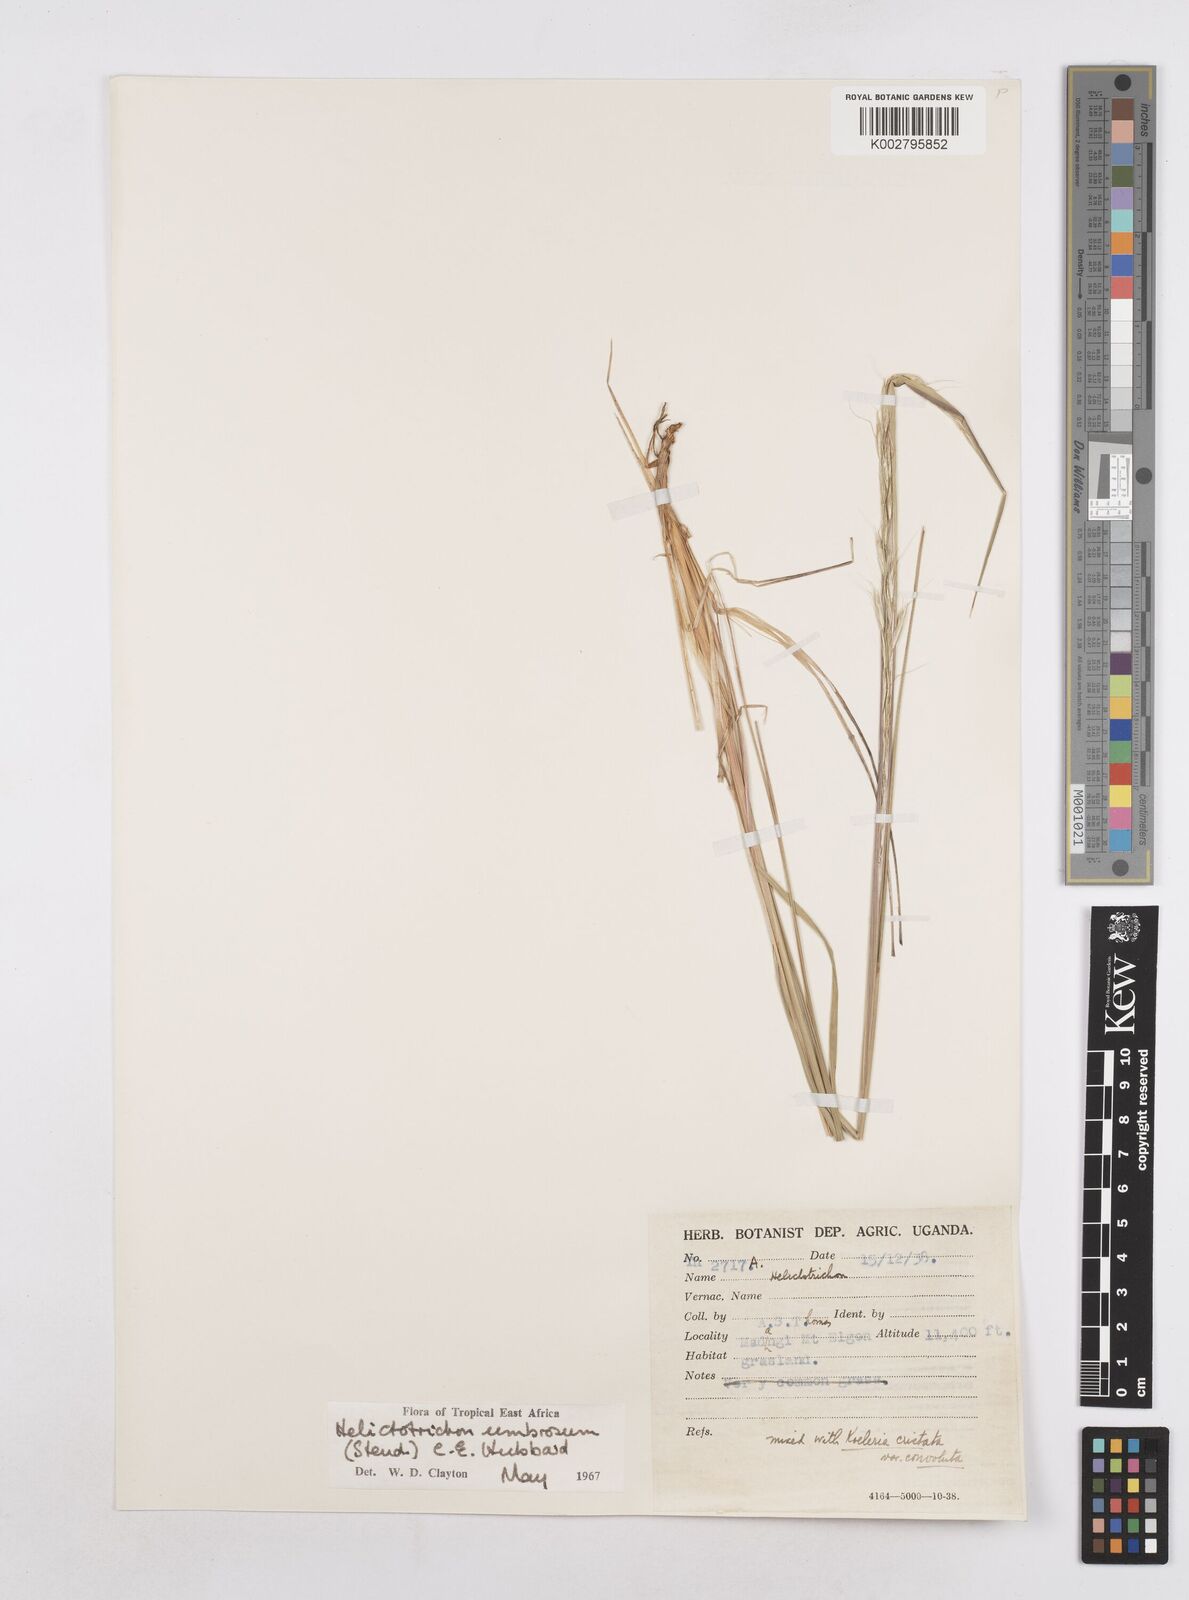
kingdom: Plantae
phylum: Tracheophyta
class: Liliopsida
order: Poales
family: Poaceae
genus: Trisetopsis
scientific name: Trisetopsis umbrosa
